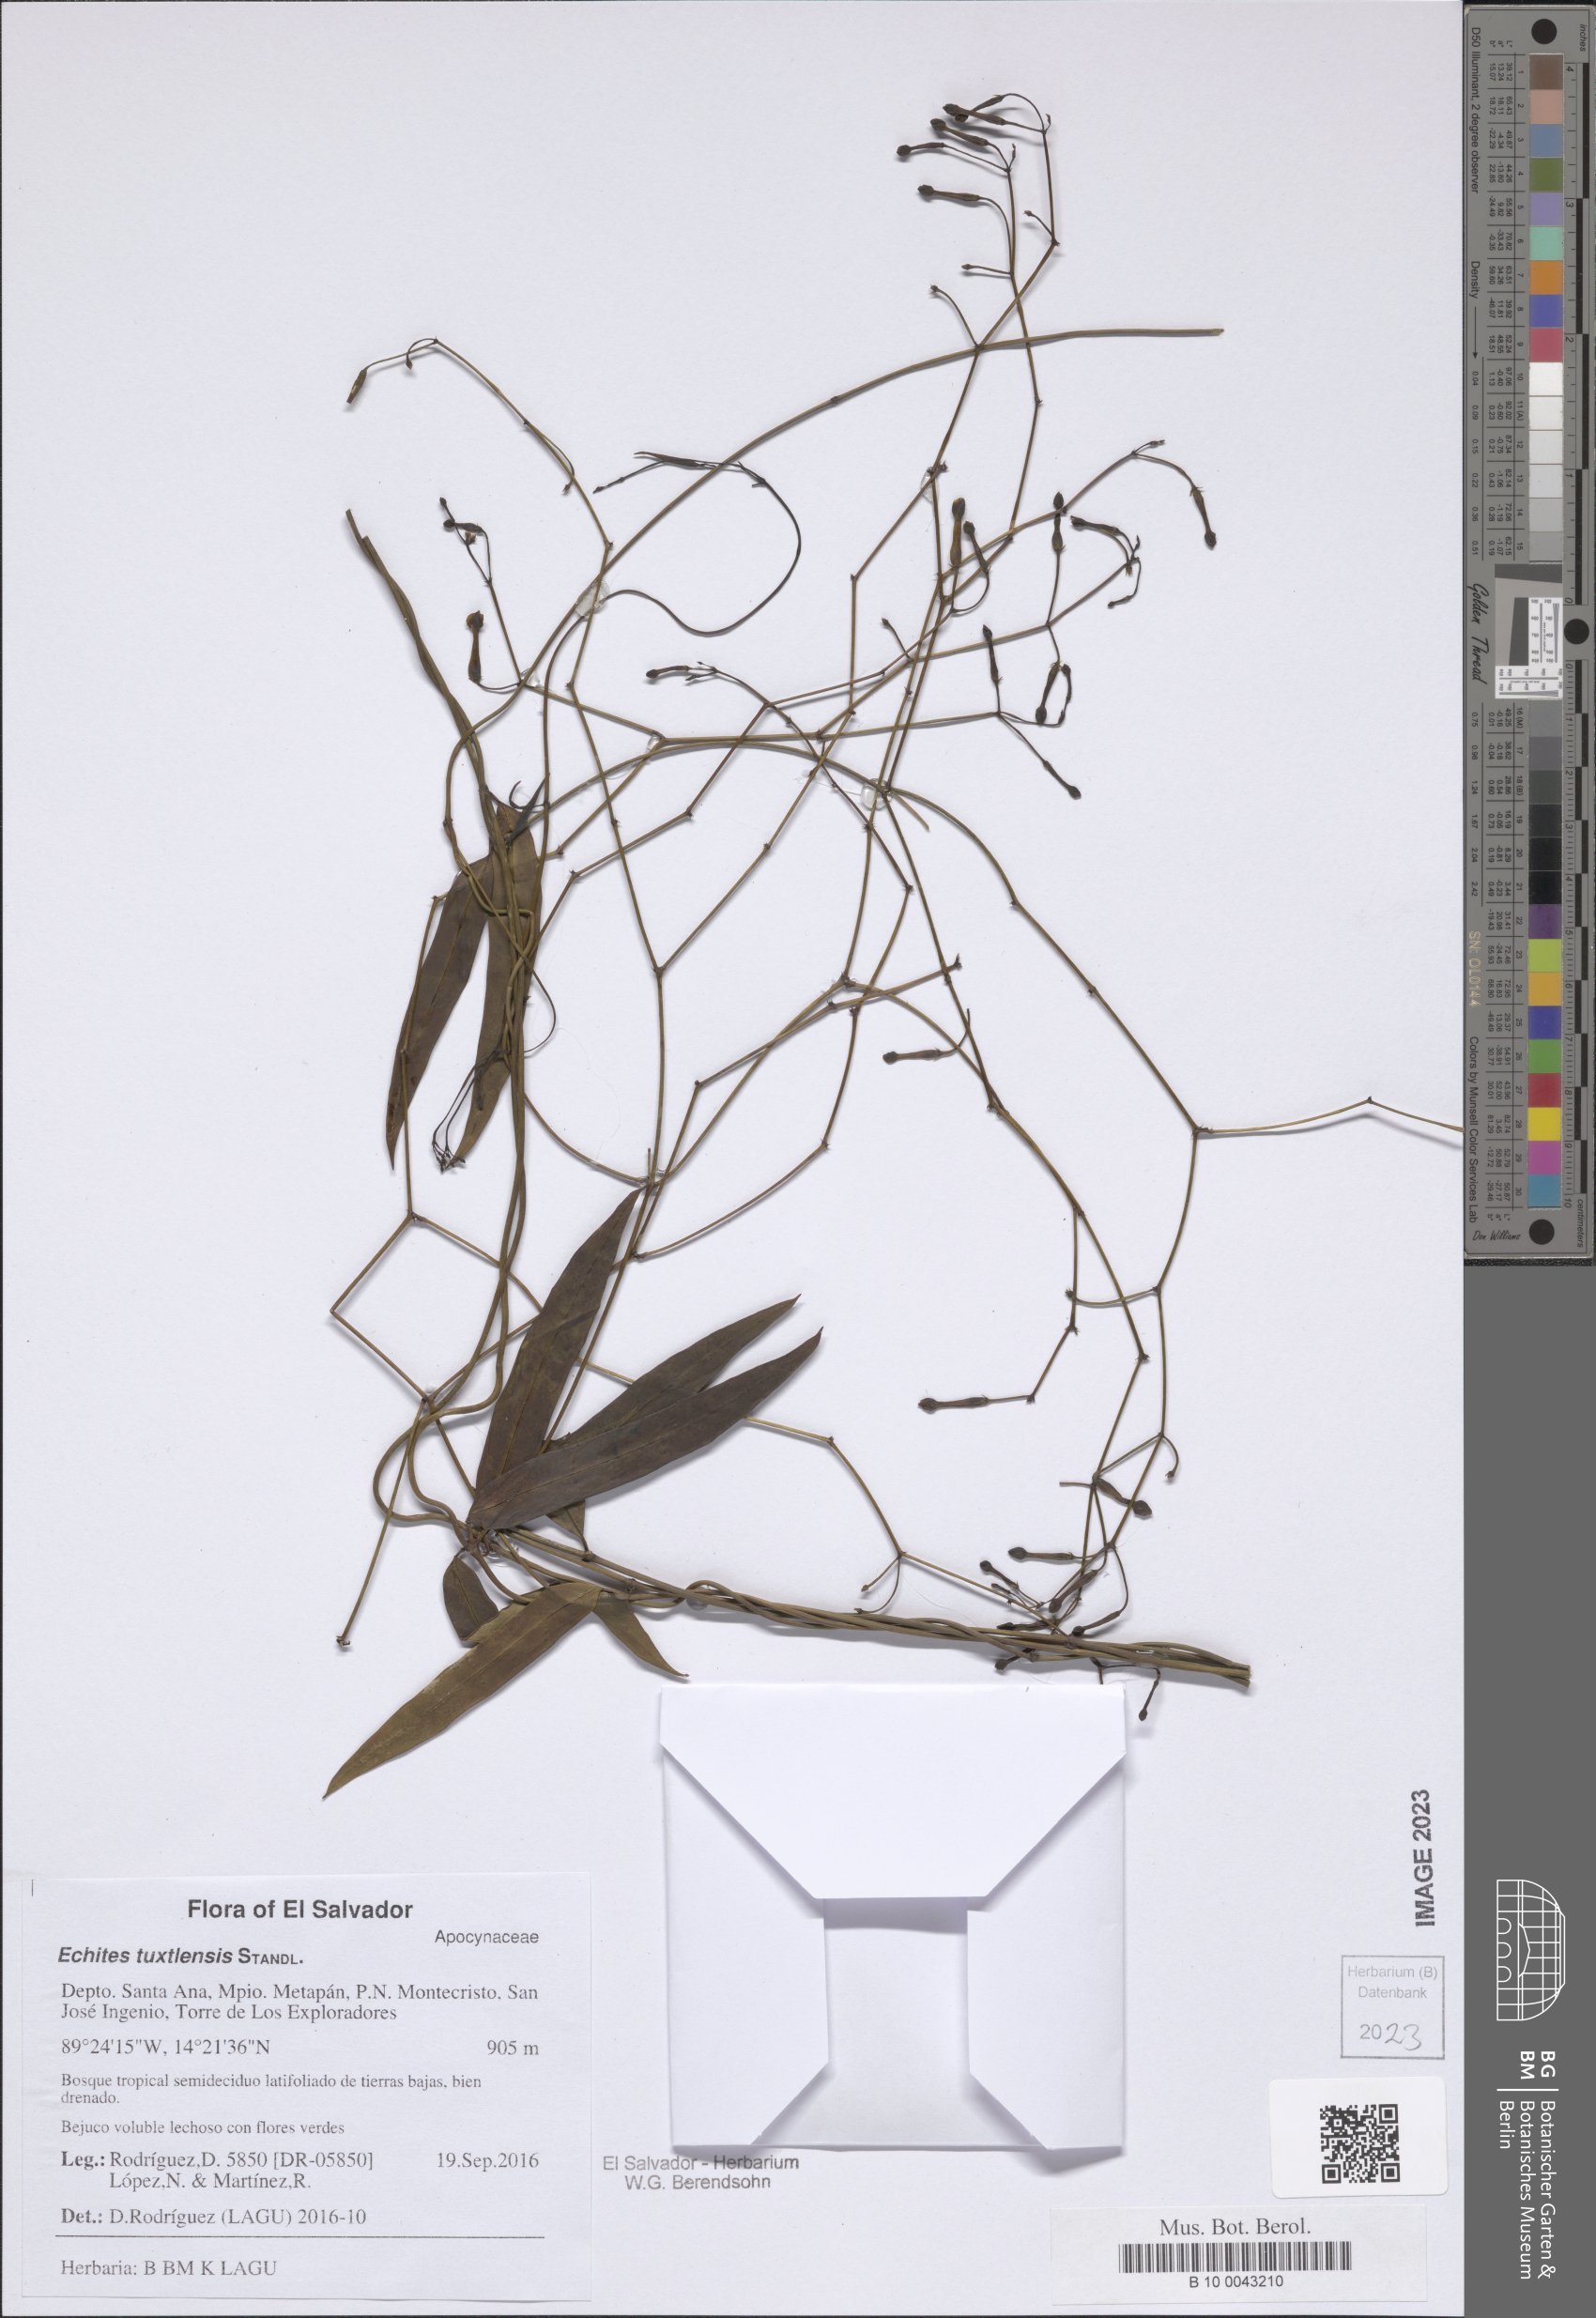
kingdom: Plantae
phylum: Tracheophyta
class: Magnoliopsida
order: Gentianales
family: Apocynaceae
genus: Echites
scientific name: Echites tuxtlensis
